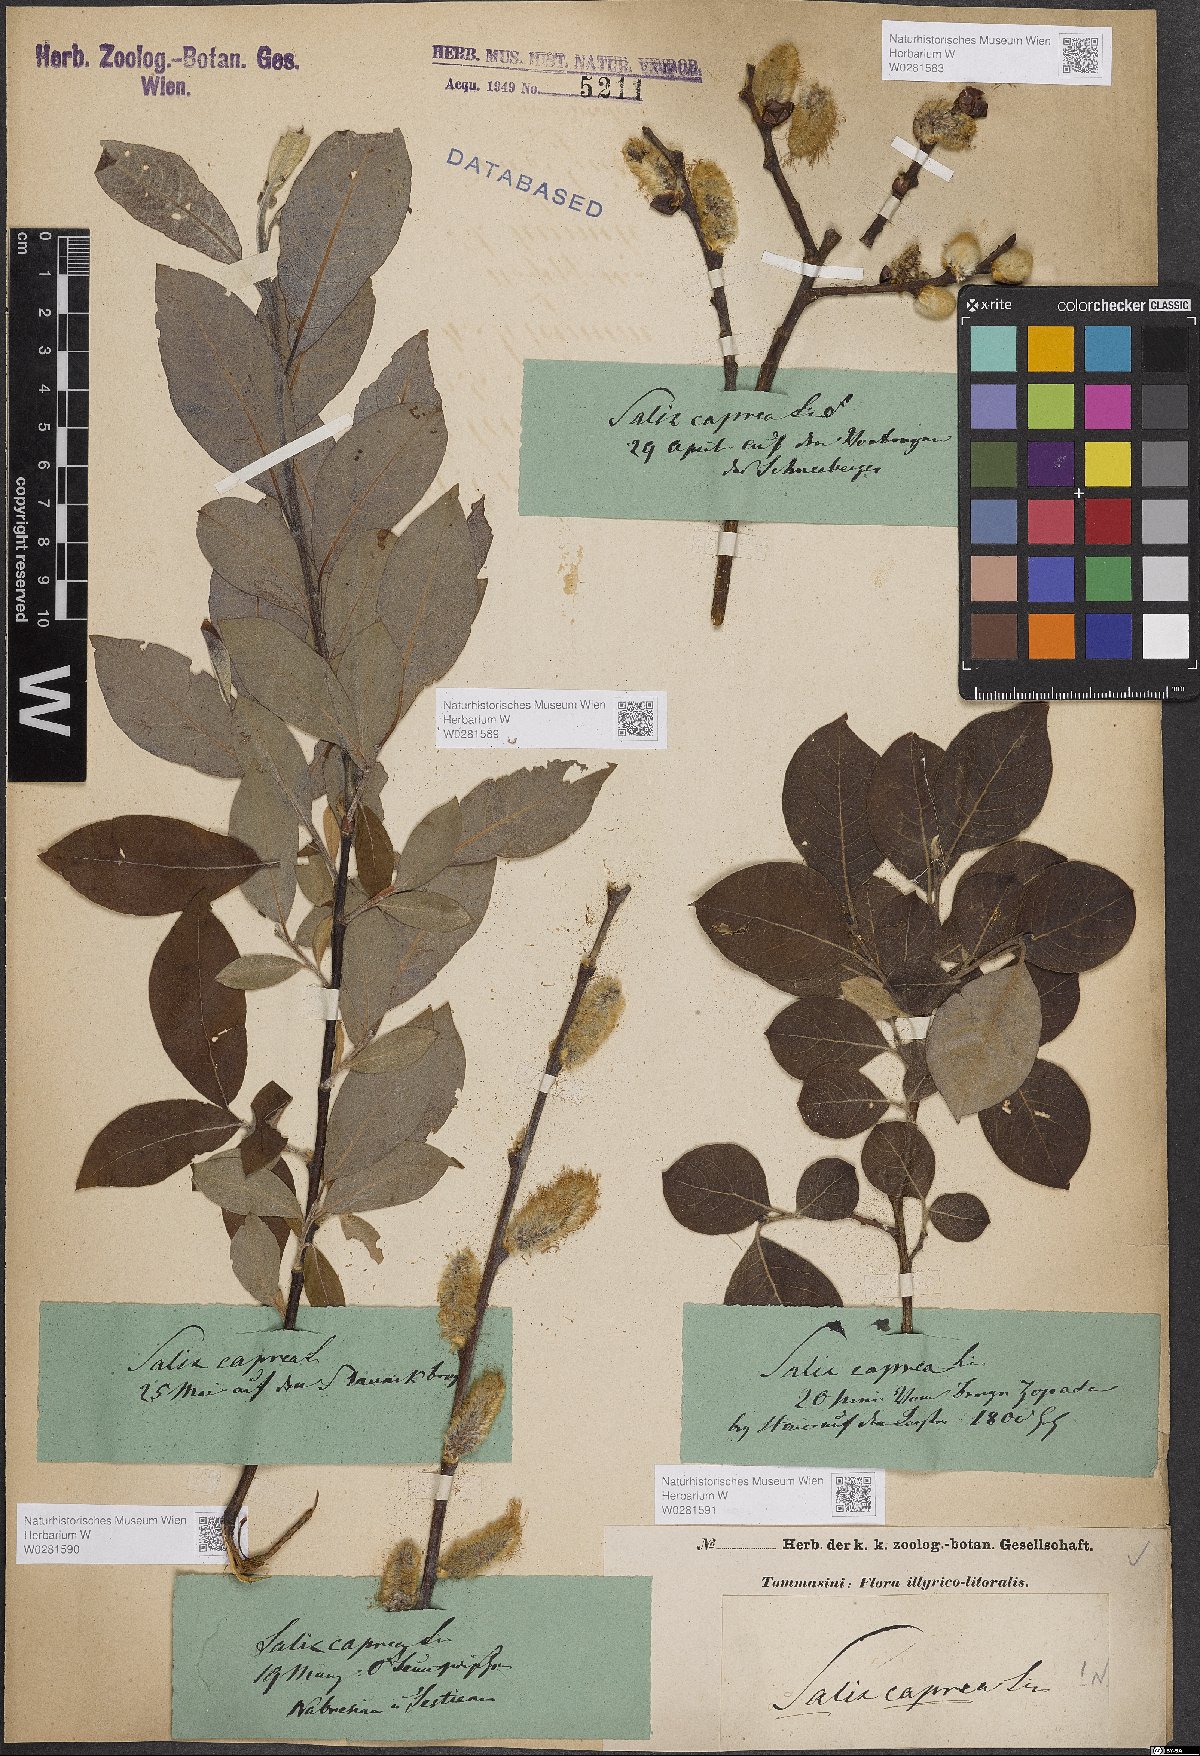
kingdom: Plantae
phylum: Tracheophyta
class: Magnoliopsida
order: Malpighiales
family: Salicaceae
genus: Salix
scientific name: Salix caprea
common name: Goat willow
